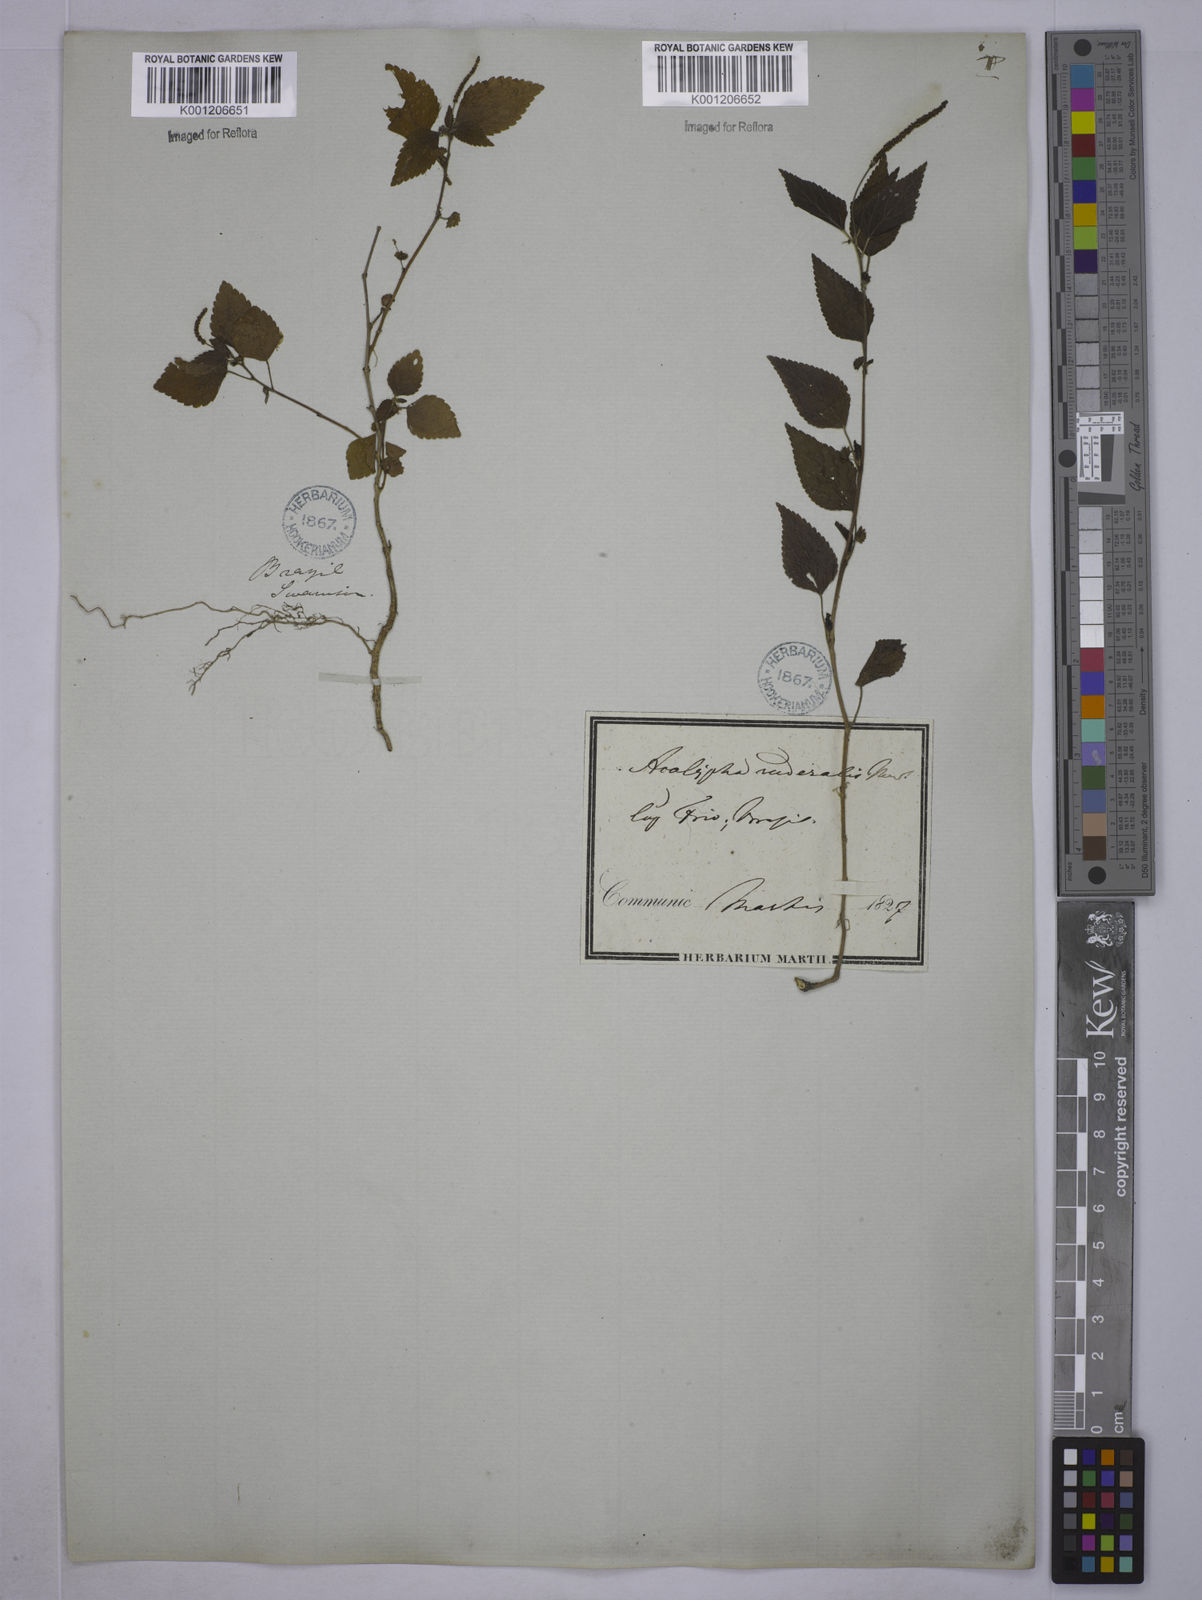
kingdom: Plantae
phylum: Tracheophyta
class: Magnoliopsida
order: Malpighiales
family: Euphorbiaceae
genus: Acalypha
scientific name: Acalypha pruriens
